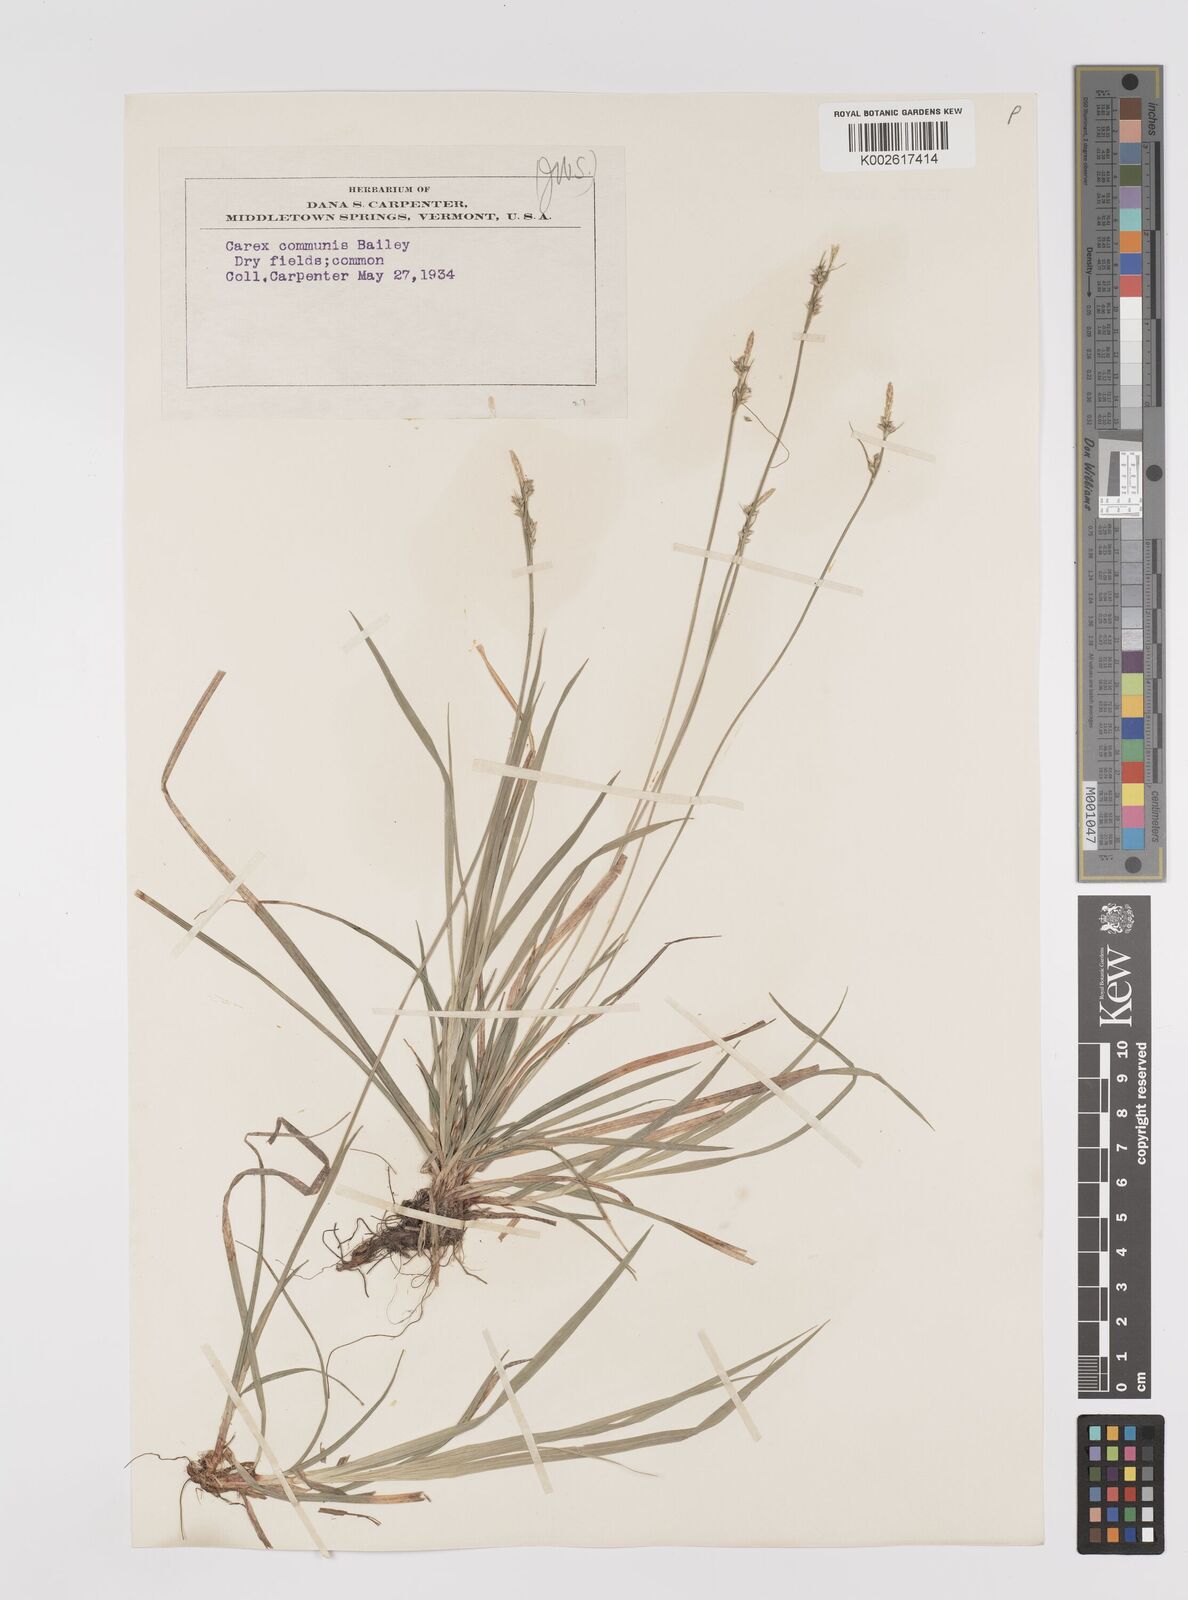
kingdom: Plantae
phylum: Tracheophyta
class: Liliopsida
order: Poales
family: Cyperaceae
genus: Carex
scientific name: Carex communis
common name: Colonial oak sedge
